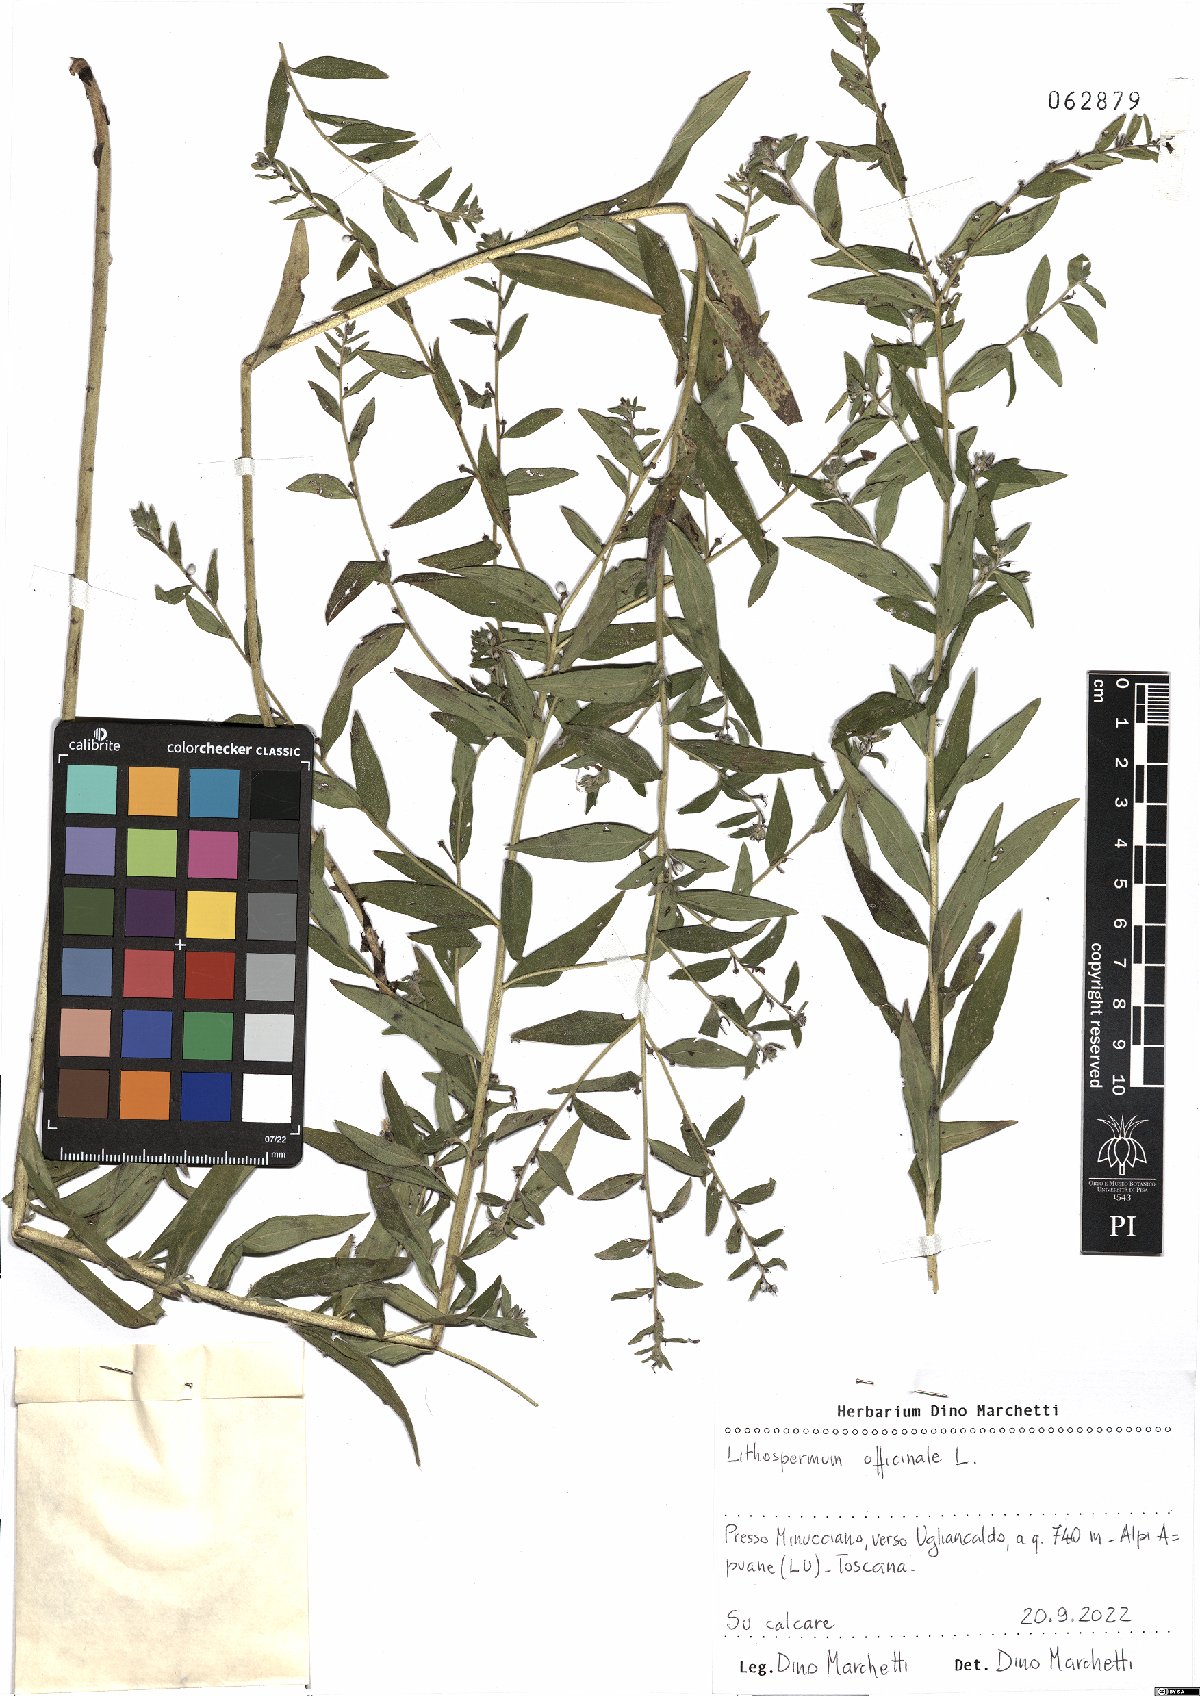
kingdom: Plantae
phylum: Tracheophyta
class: Magnoliopsida
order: Boraginales
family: Boraginaceae
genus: Lithospermum
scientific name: Lithospermum officinale
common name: Common gromwell
